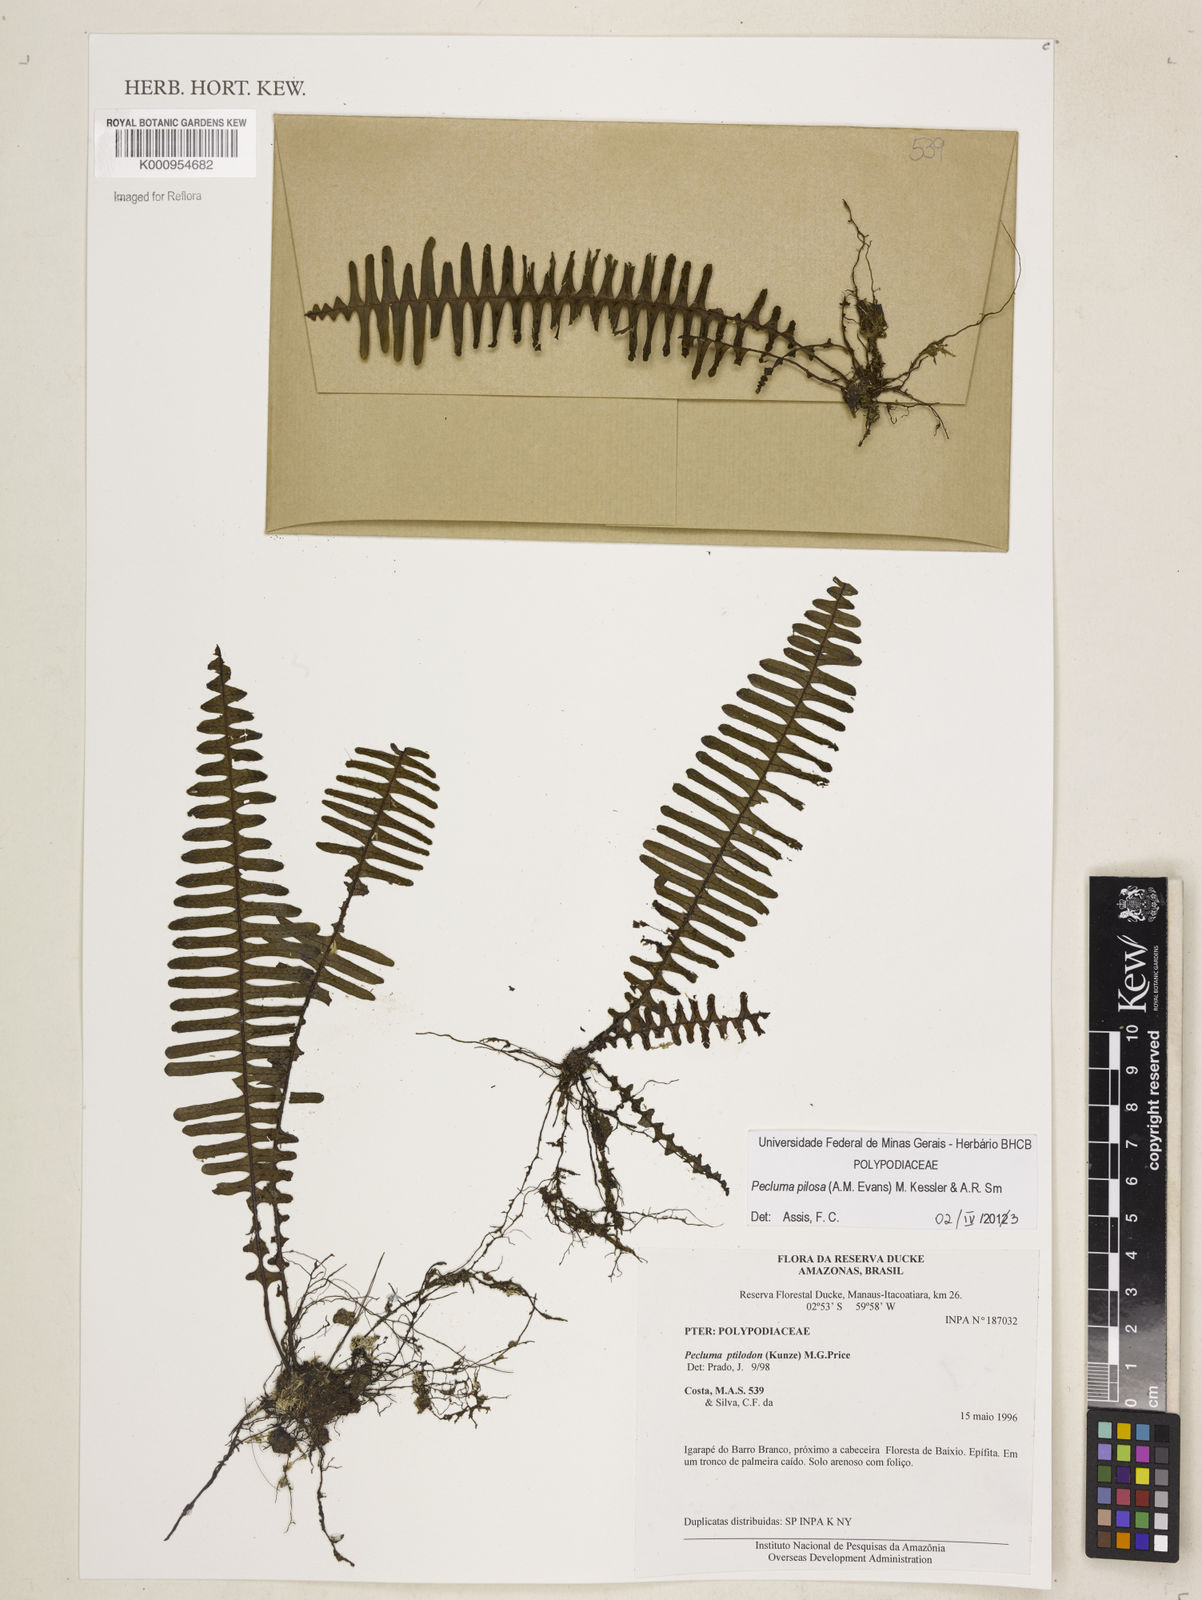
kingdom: Plantae
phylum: Tracheophyta
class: Polypodiopsida
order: Polypodiales
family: Polypodiaceae
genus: Pecluma
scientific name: Pecluma pilosa
